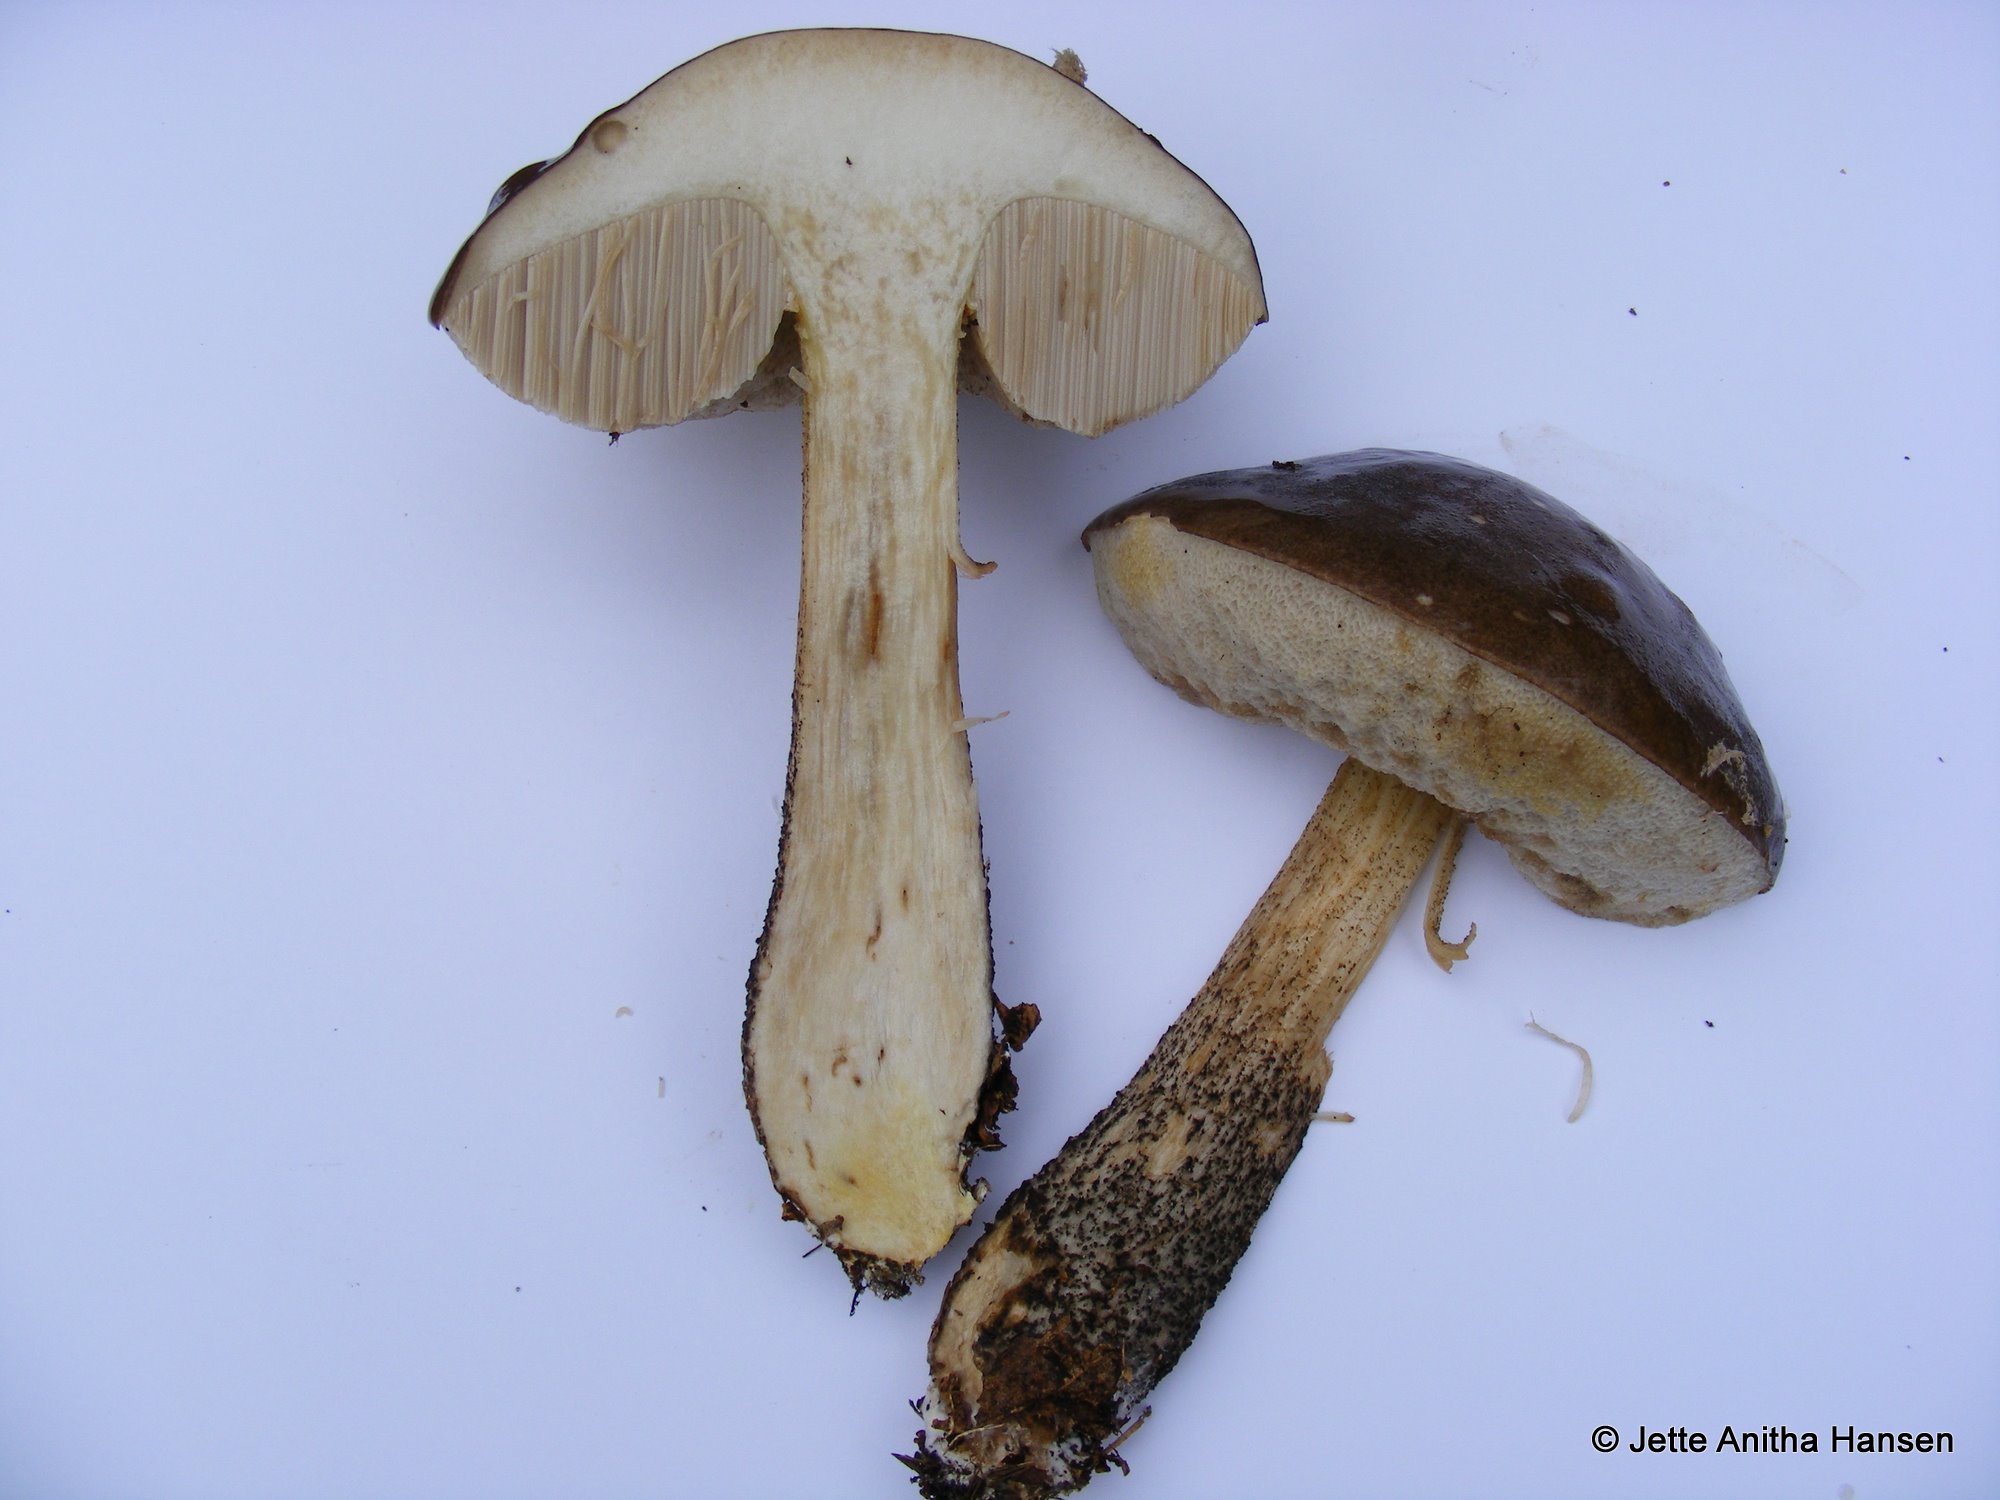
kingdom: Fungi
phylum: Basidiomycota
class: Agaricomycetes
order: Boletales
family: Boletaceae
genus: Leccinum
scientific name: Leccinum scabrum
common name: brun skælrørhat
